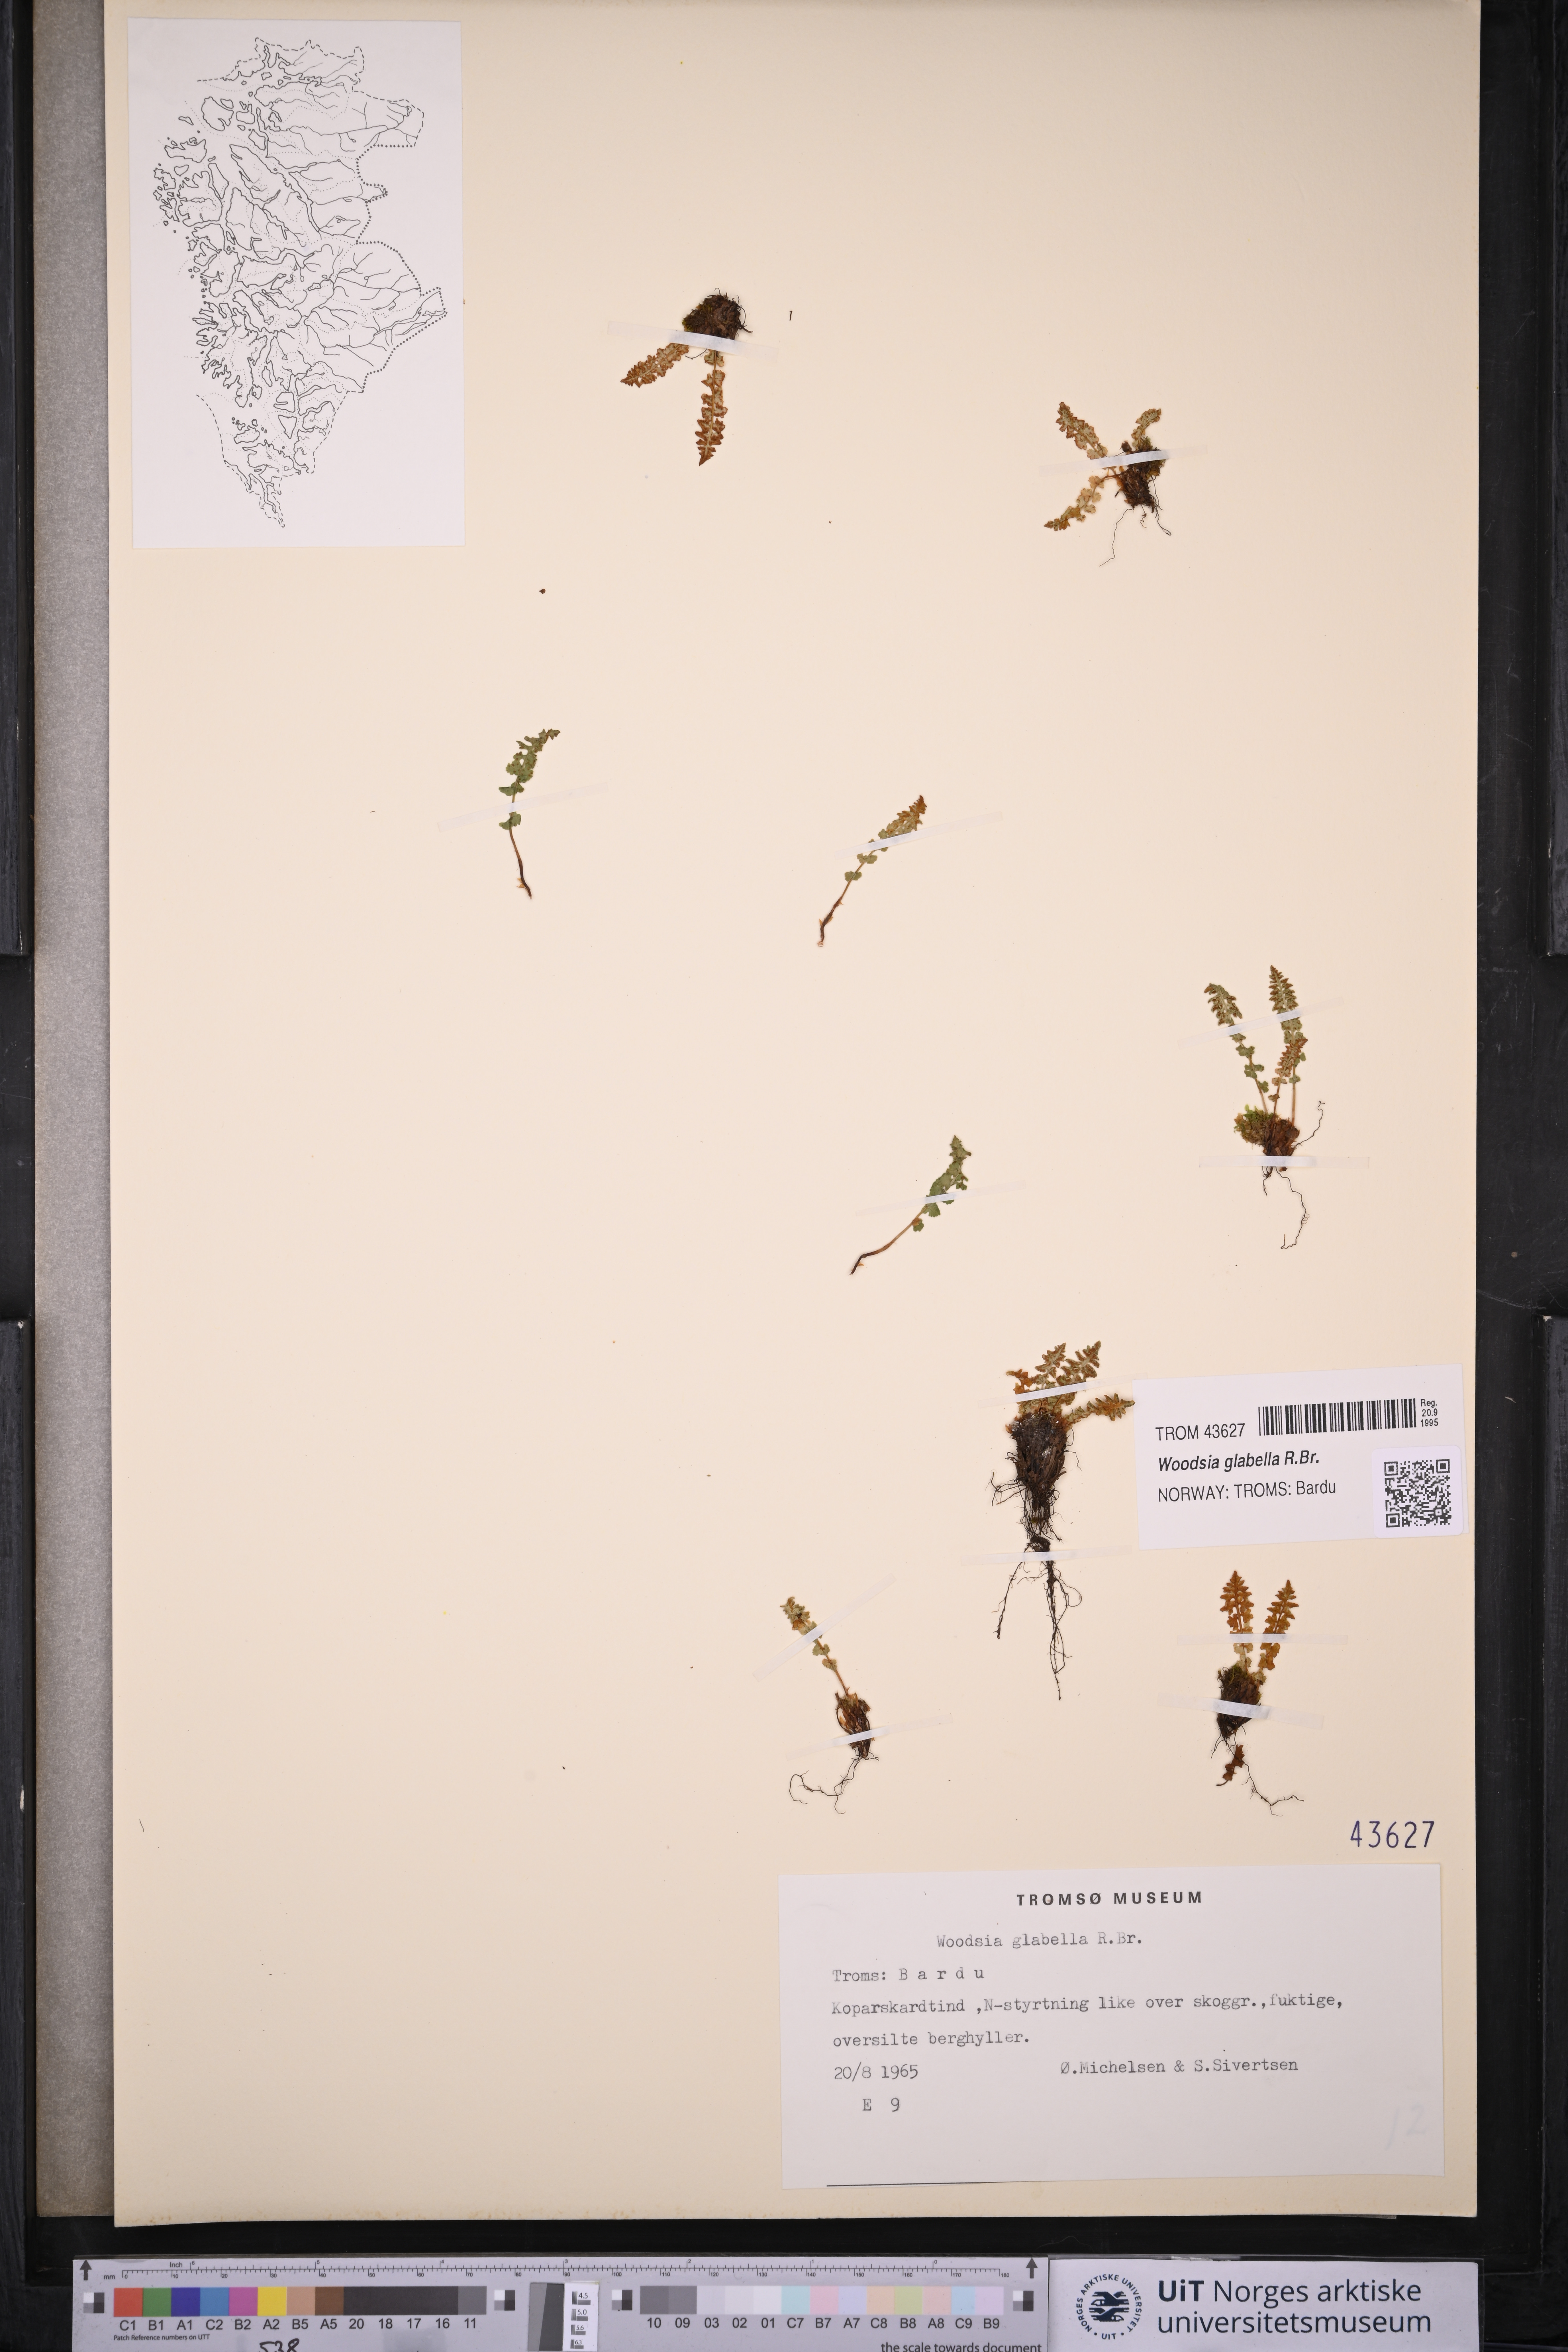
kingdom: Plantae
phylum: Tracheophyta
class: Polypodiopsida
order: Polypodiales
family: Woodsiaceae
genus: Woodsia
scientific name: Woodsia glabella
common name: Smooth woodsia
